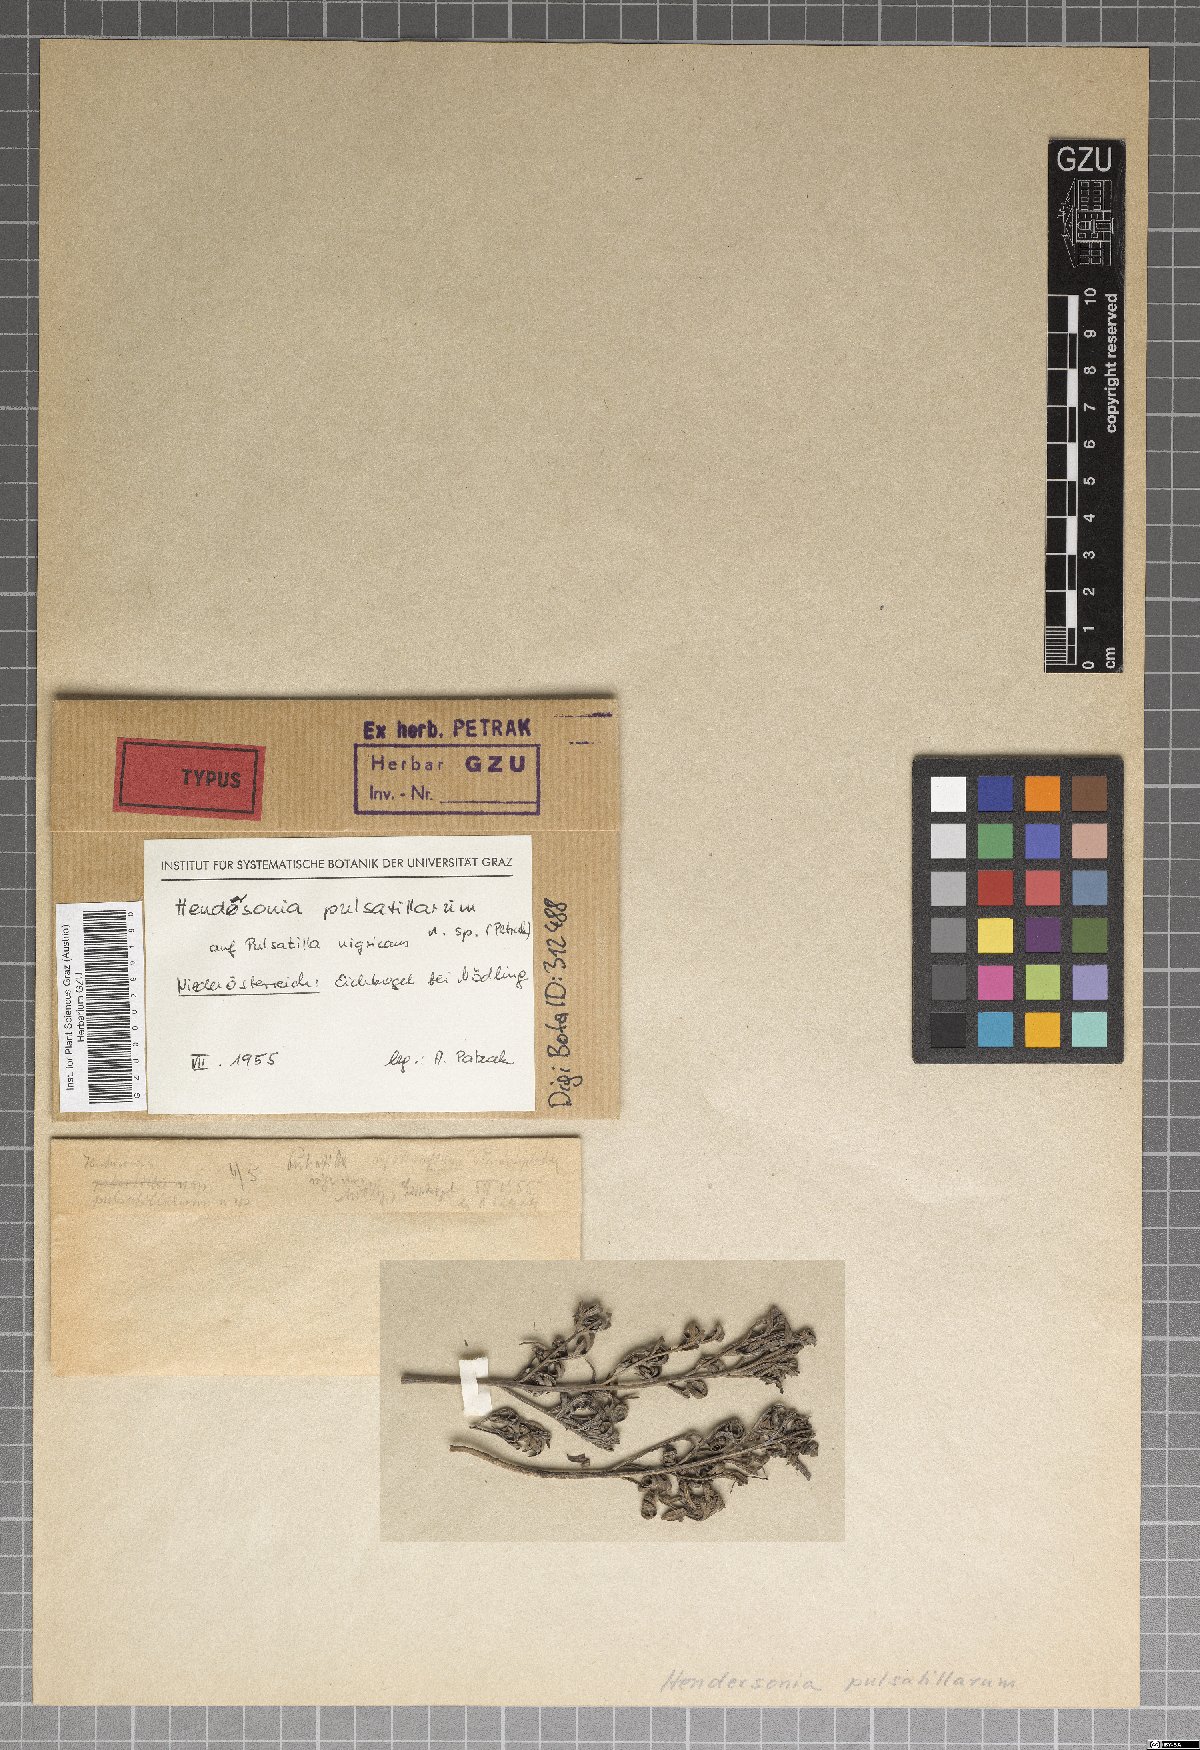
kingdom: Fungi
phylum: Ascomycota
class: Dothideomycetes
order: Pleosporales
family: Phaeosphaeriaceae
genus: Hendersonia
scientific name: Hendersonia pulsatillarum
